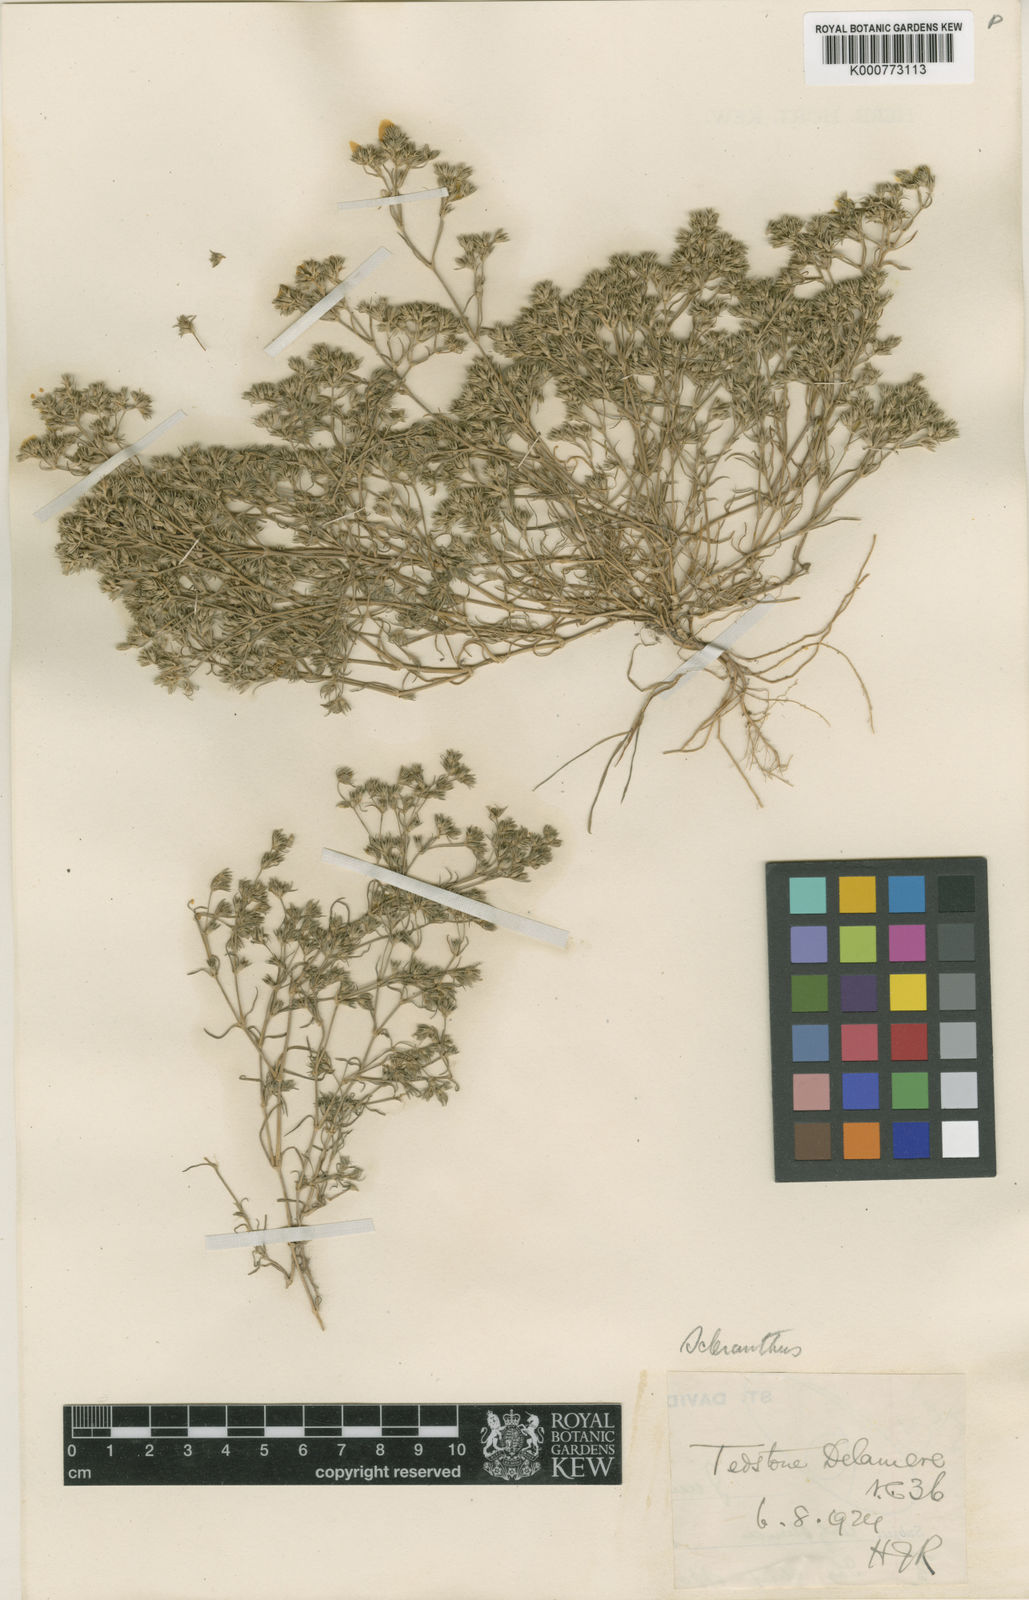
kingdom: Plantae
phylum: Tracheophyta
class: Magnoliopsida
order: Caryophyllales
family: Caryophyllaceae
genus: Scleranthus
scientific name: Scleranthus annuus
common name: Annual knawel
